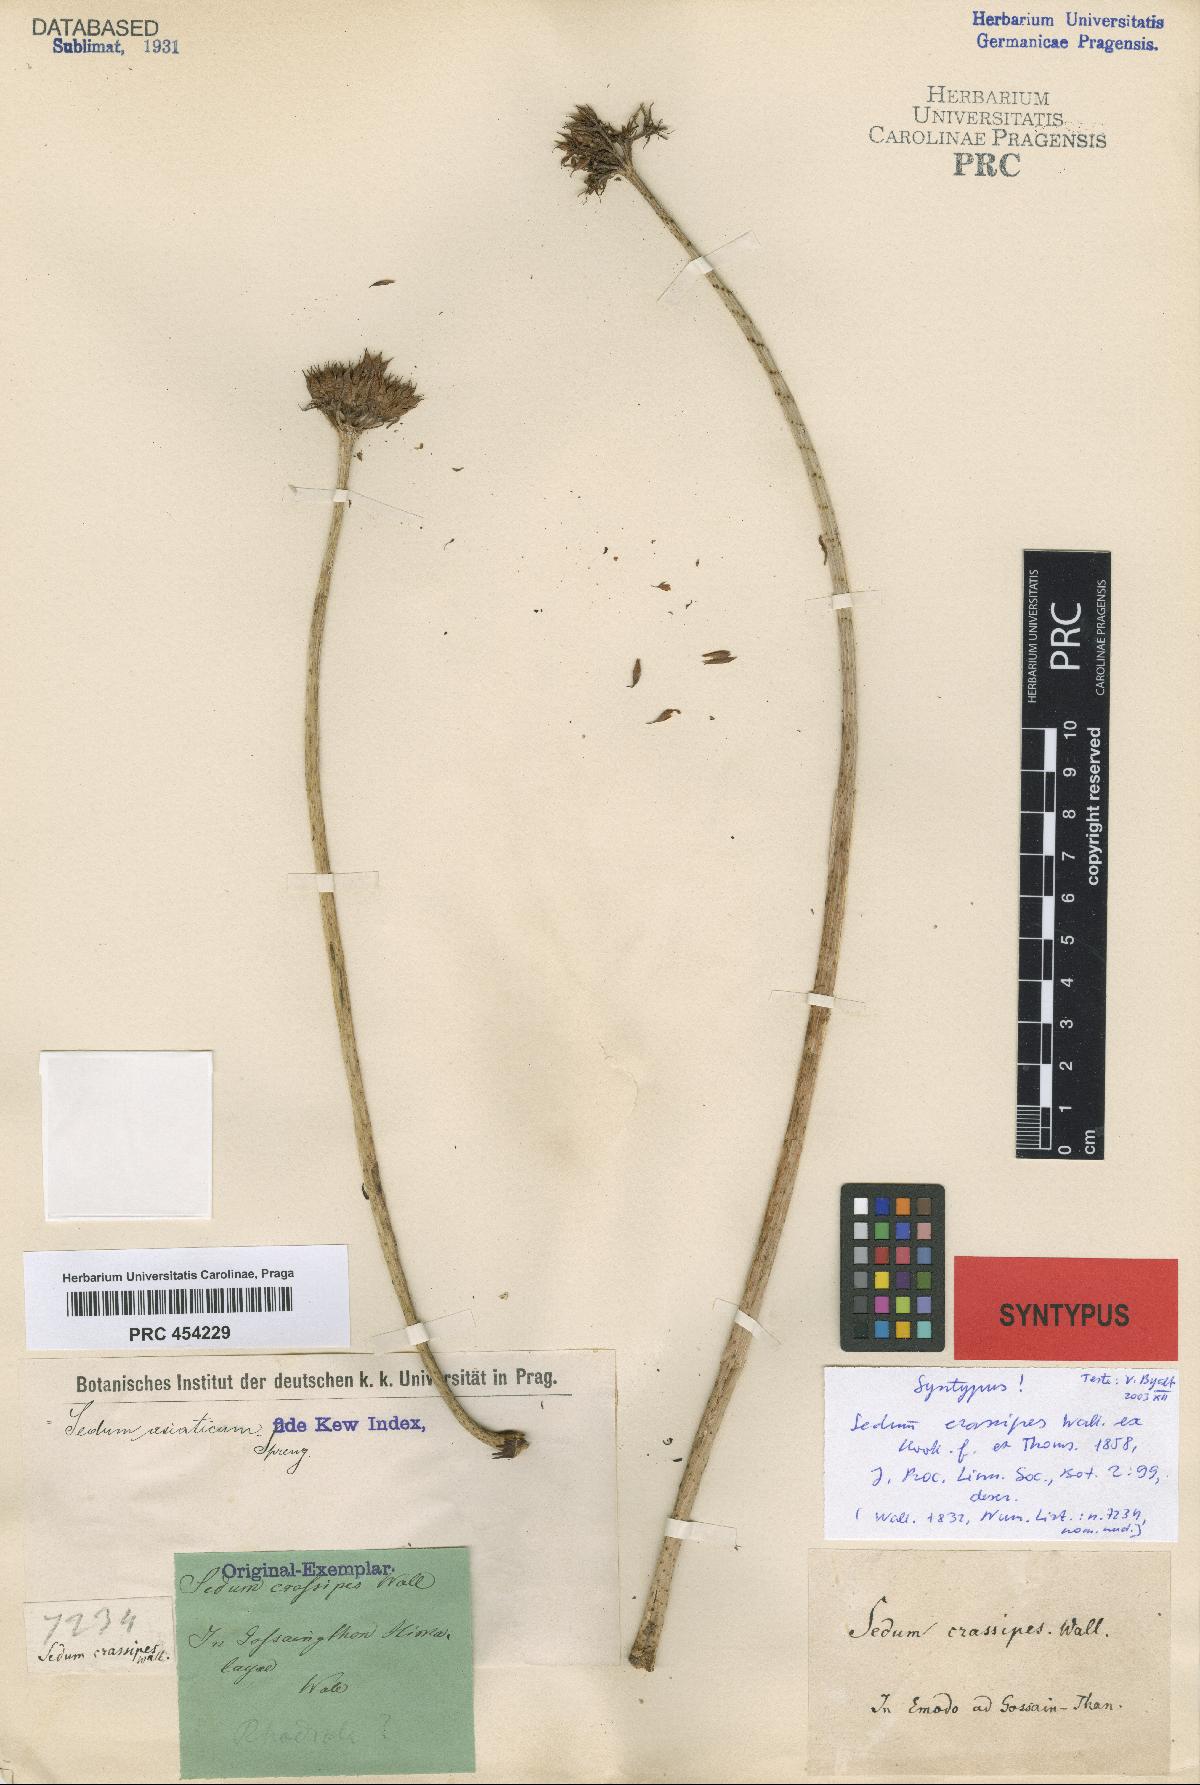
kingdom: Plantae
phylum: Tracheophyta
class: Magnoliopsida
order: Saxifragales
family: Crassulaceae
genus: Rhodiola
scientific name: Rhodiola wallichiana
